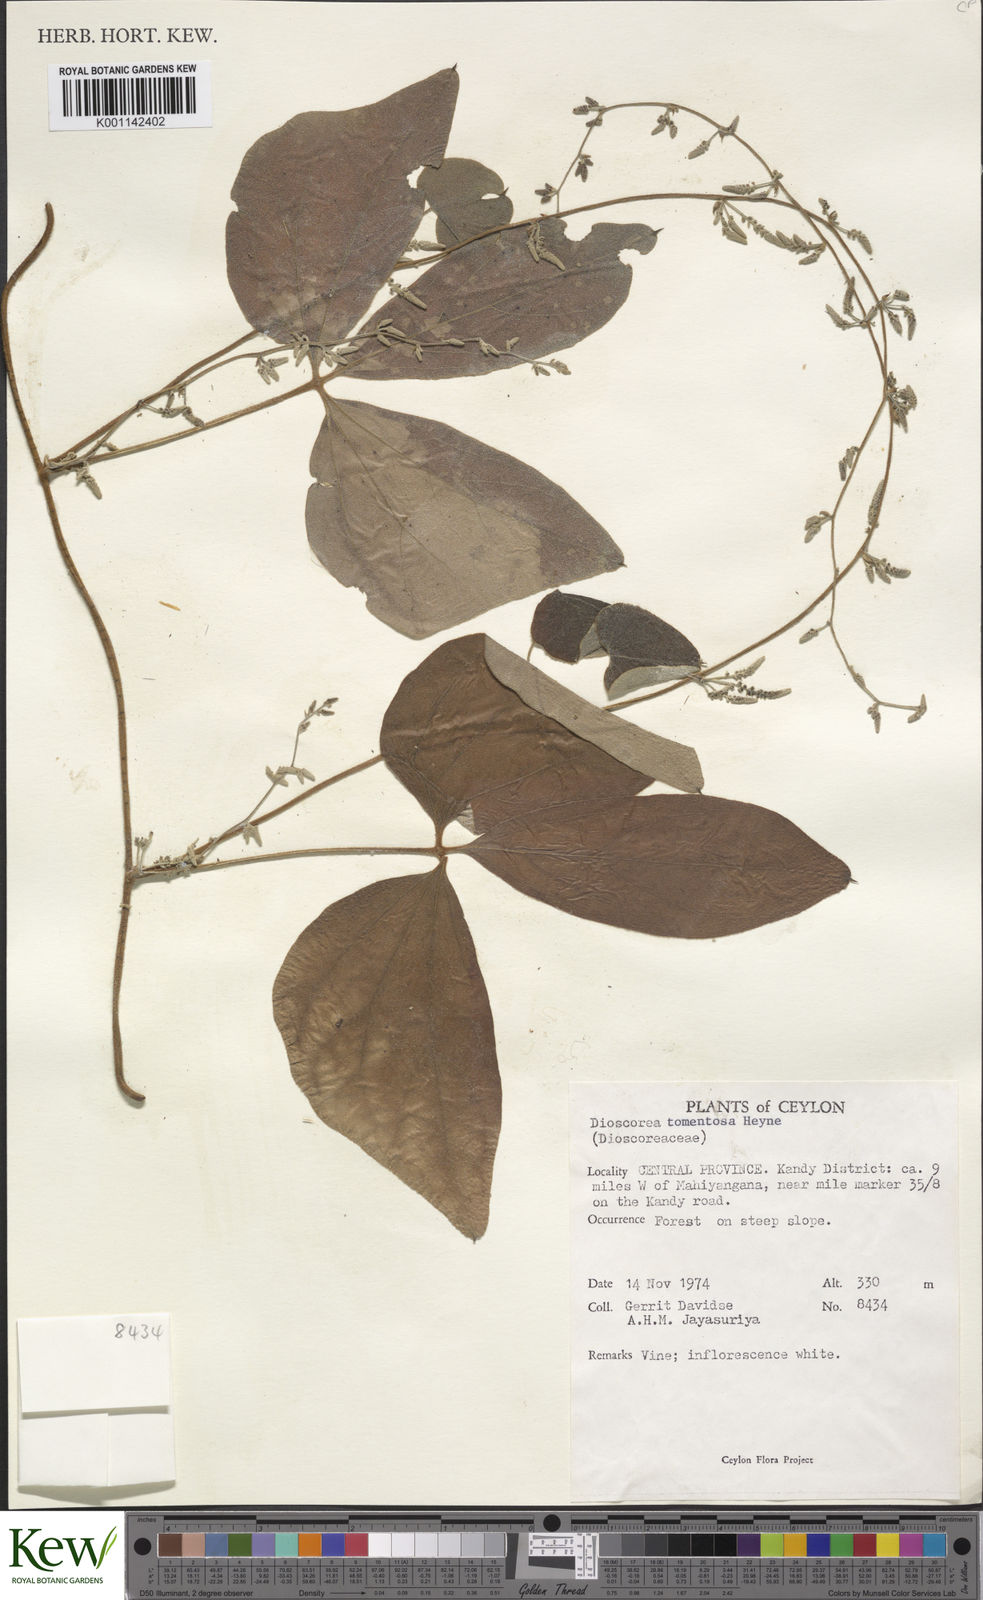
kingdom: Plantae
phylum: Tracheophyta
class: Liliopsida
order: Dioscoreales
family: Dioscoreaceae
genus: Dioscorea
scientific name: Dioscorea
